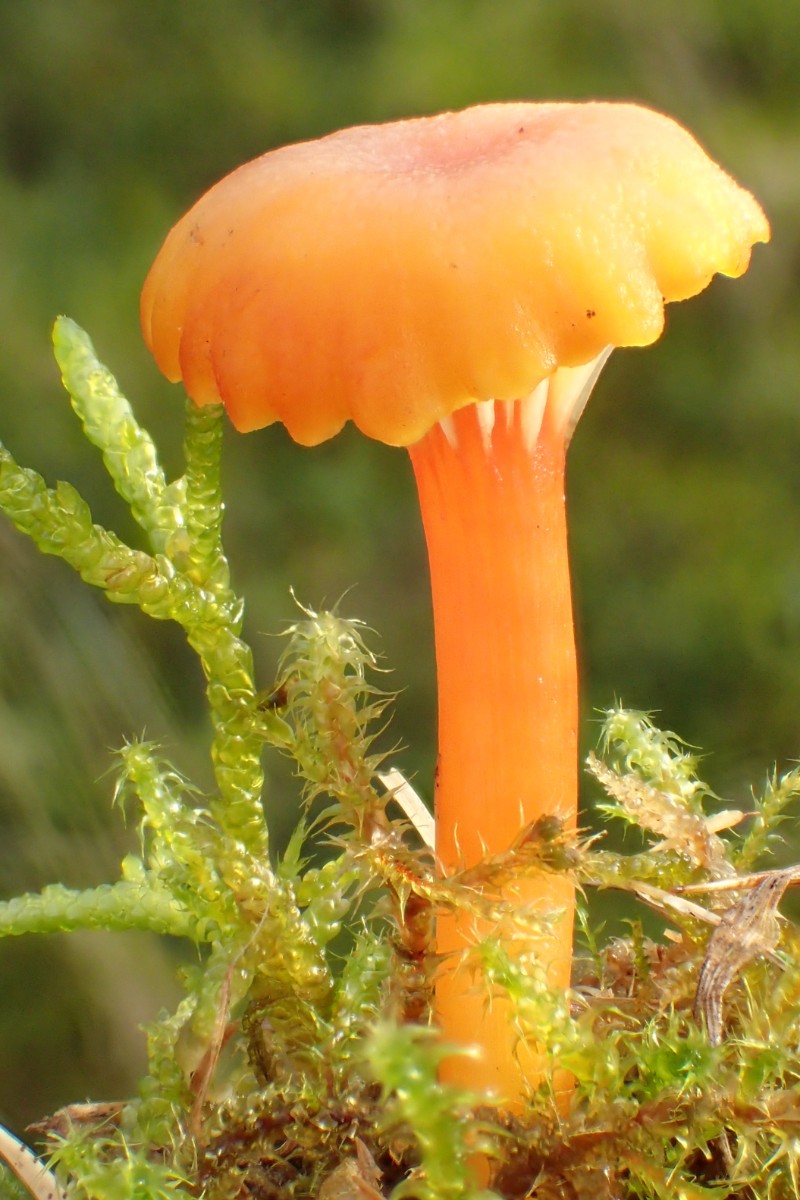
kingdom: Fungi
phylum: Basidiomycota
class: Agaricomycetes
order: Agaricales
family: Hygrophoraceae
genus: Hygrocybe
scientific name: Hygrocybe insipida
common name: liden vokshat
